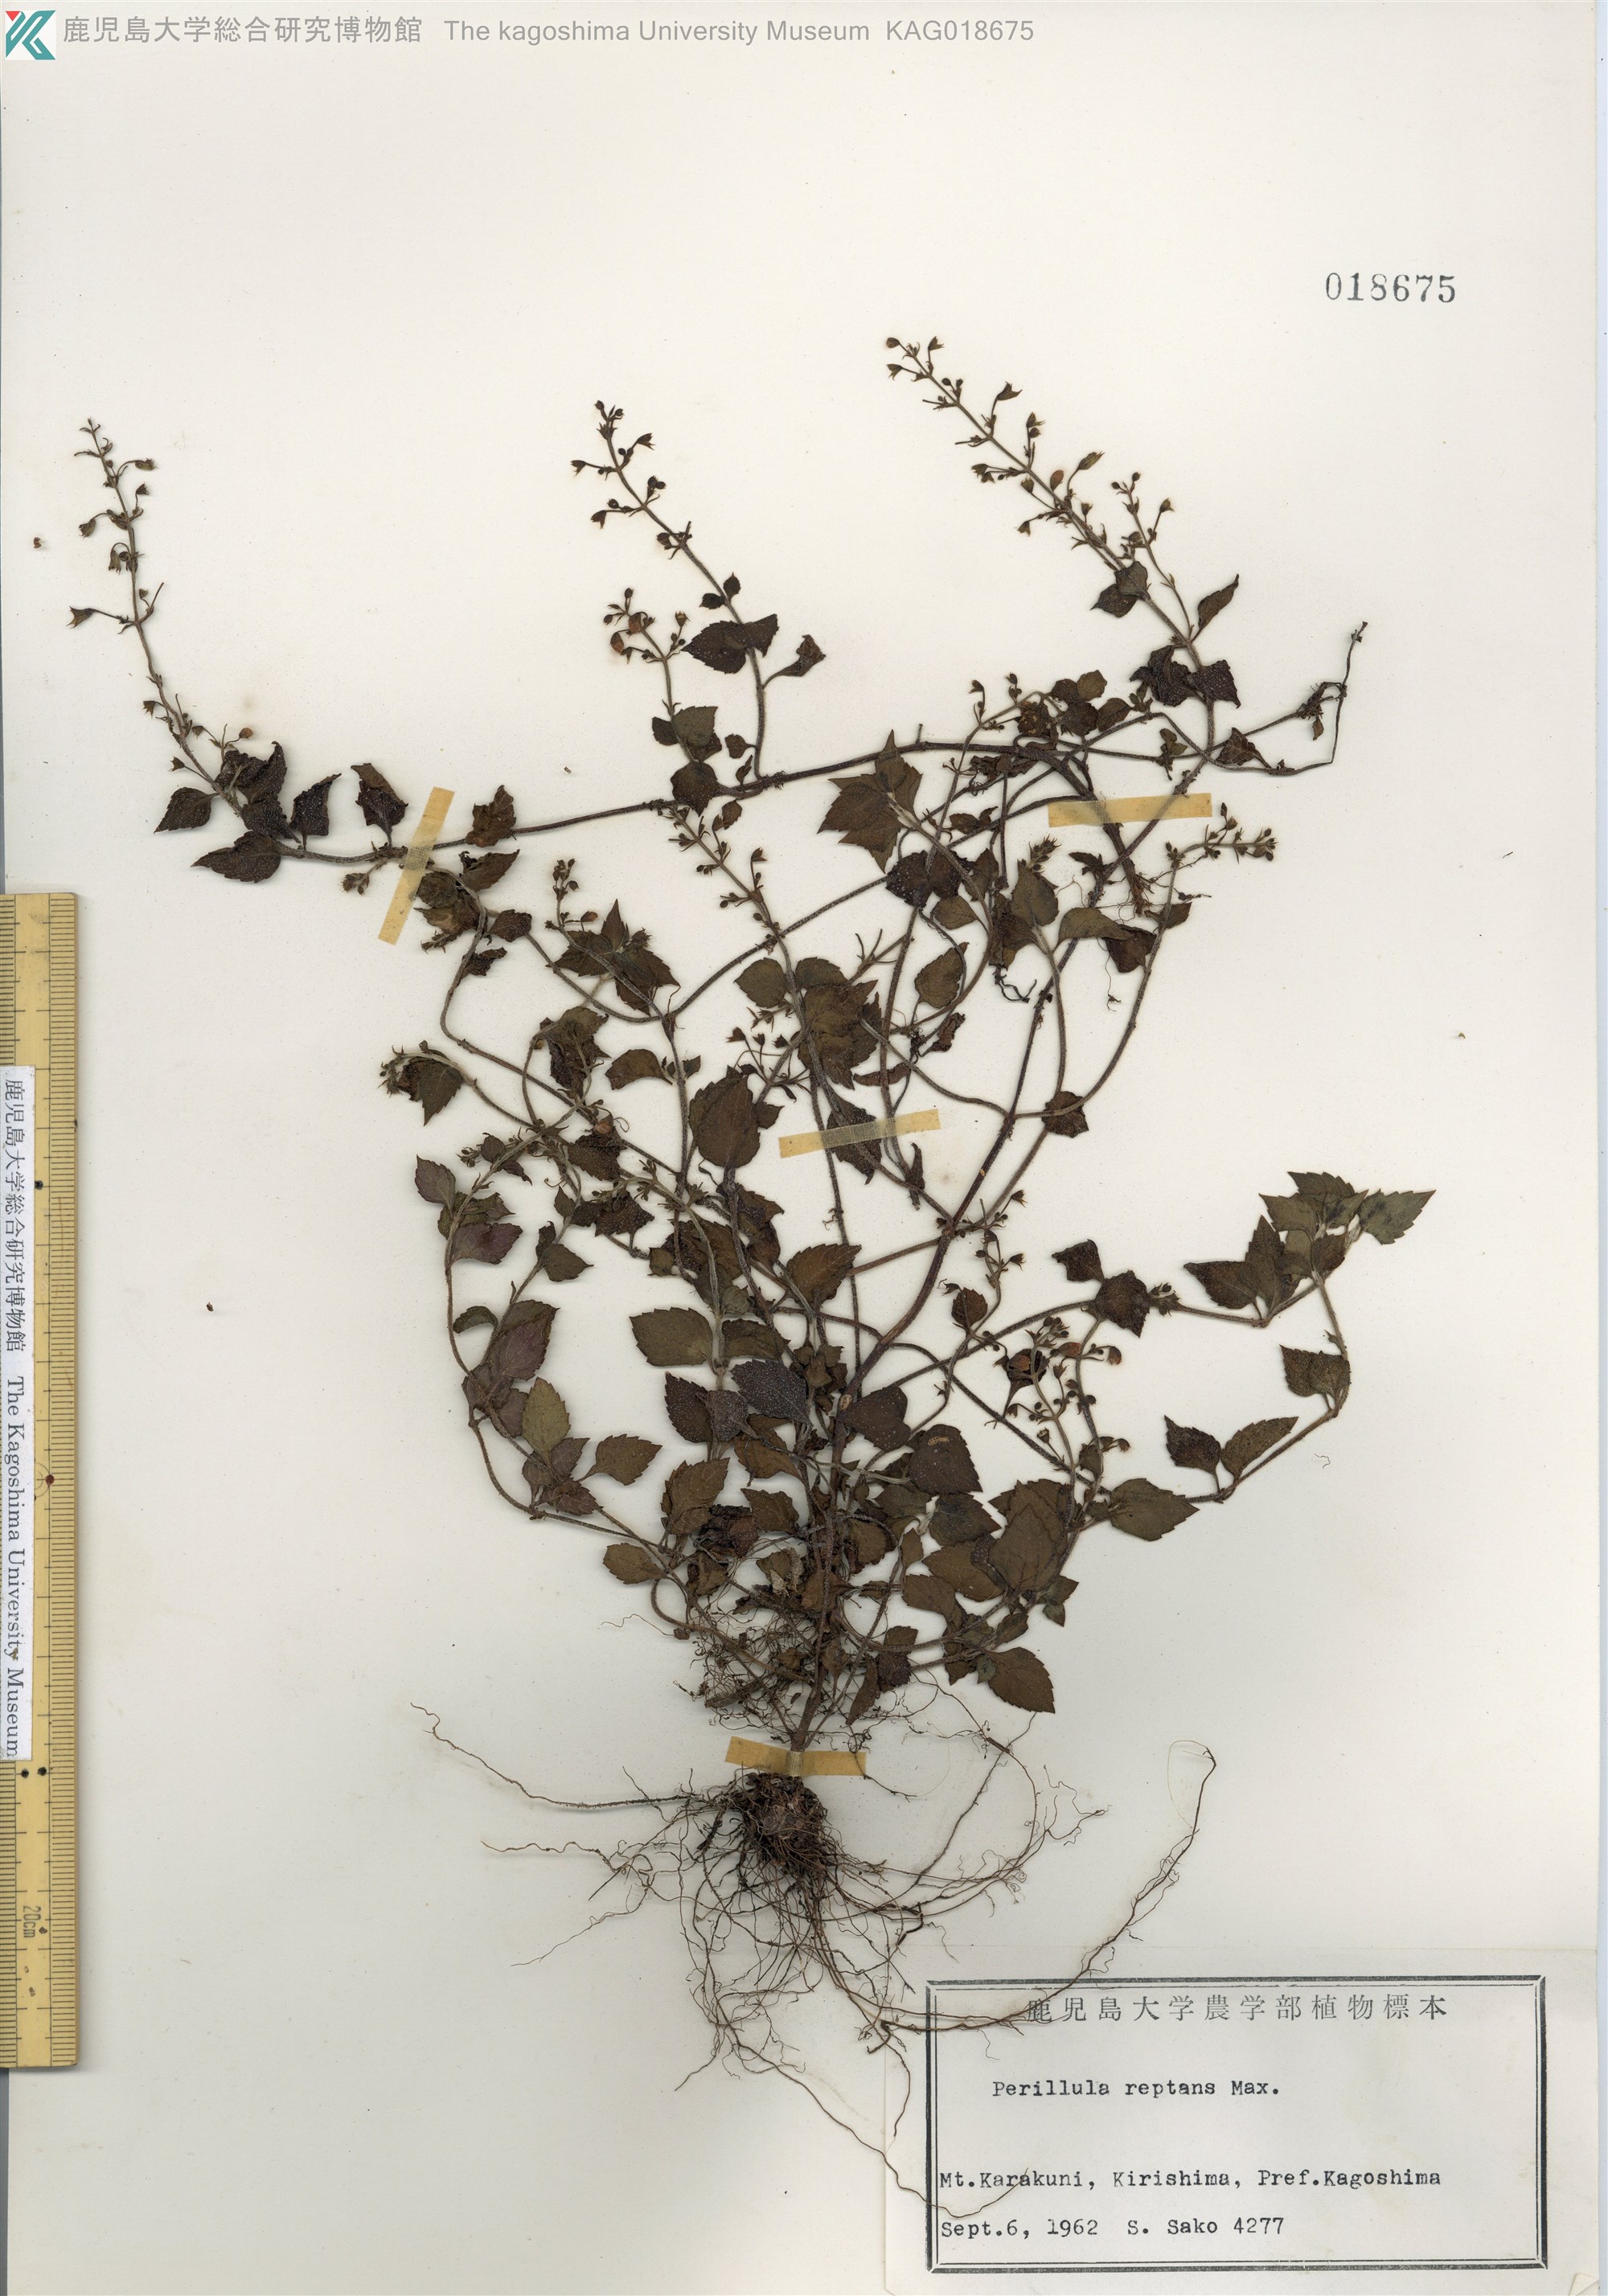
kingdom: Plantae
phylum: Tracheophyta
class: Magnoliopsida
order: Lamiales
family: Lamiaceae
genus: Perillula
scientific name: Perillula reptans
